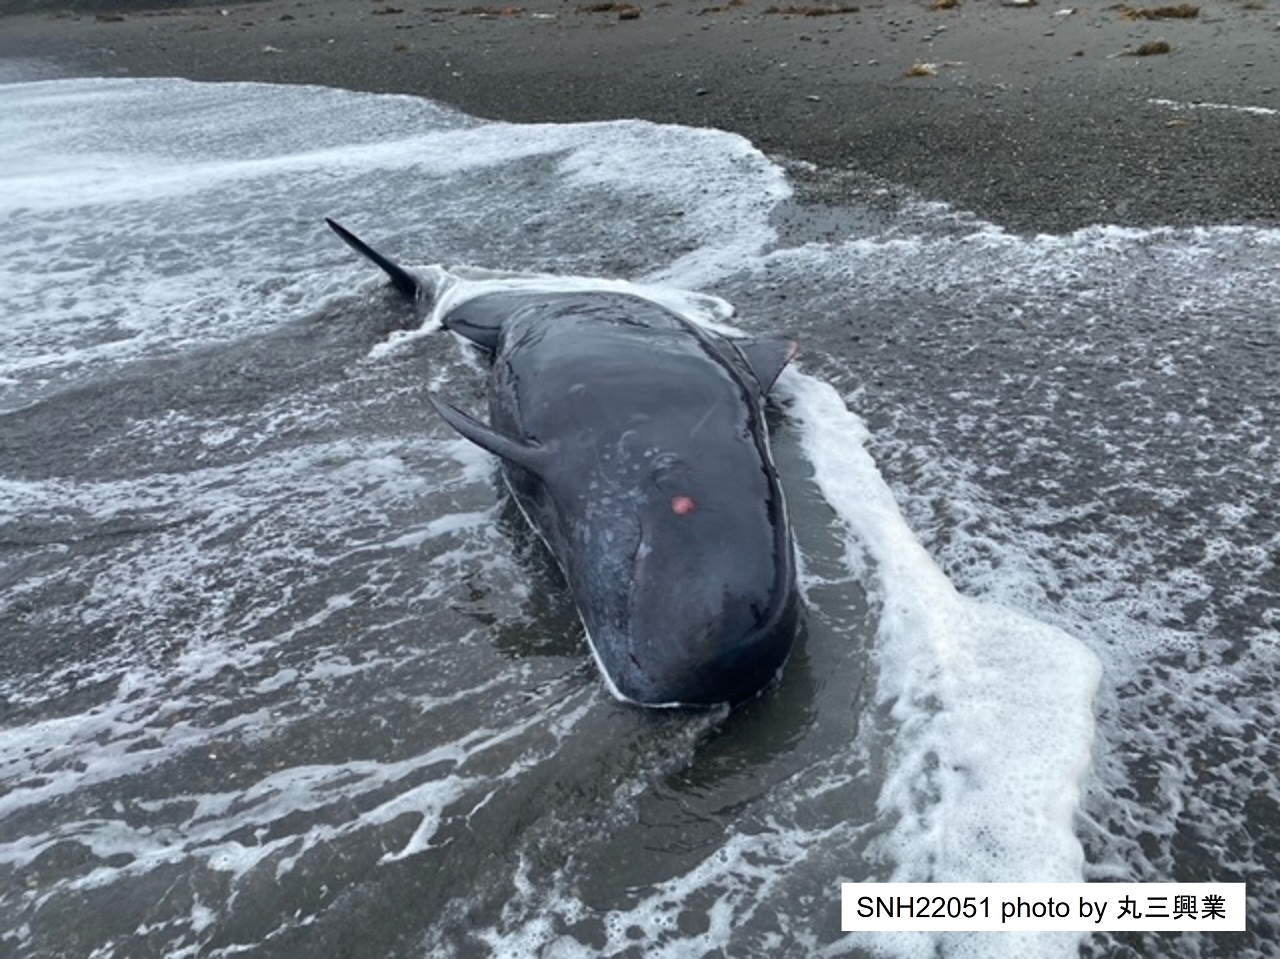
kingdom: Animalia
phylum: Chordata
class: Mammalia
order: Cetacea
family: Delphinidae
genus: Globicephala
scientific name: Globicephala macrorhynchus
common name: Short-finned pilot whale
